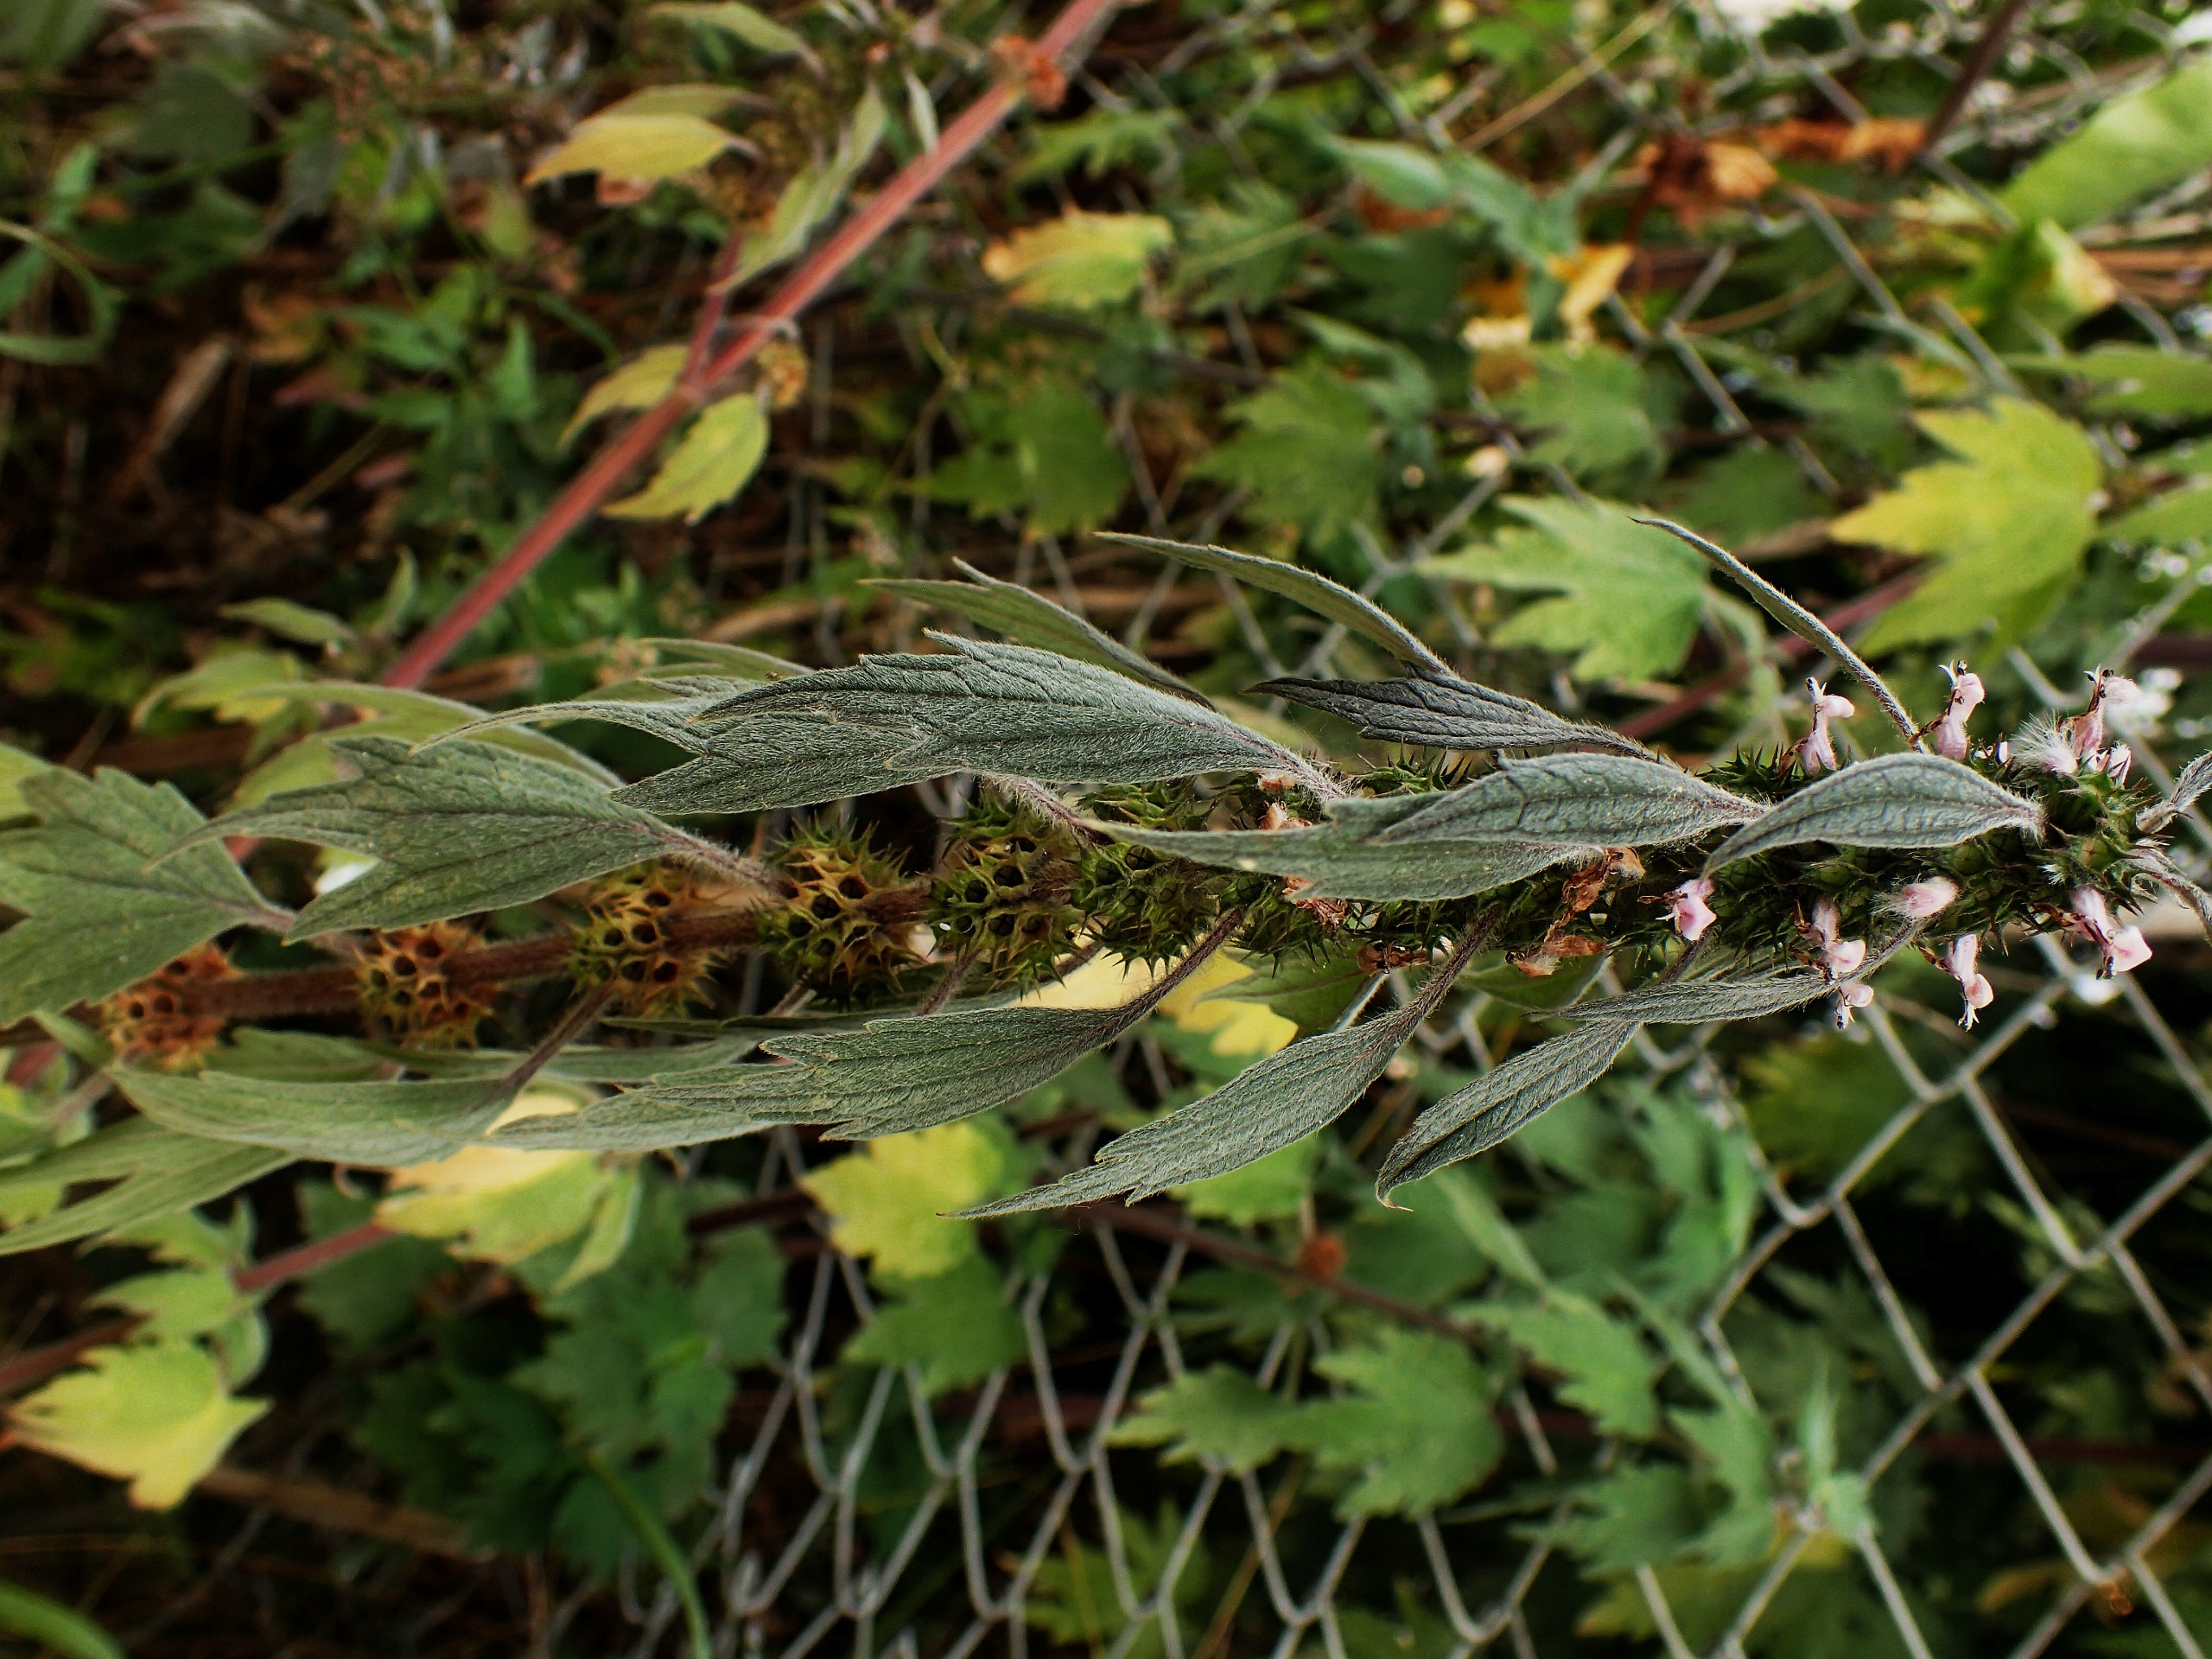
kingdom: Plantae
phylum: Tracheophyta
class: Magnoliopsida
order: Lamiales
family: Lamiaceae
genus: Leonurus
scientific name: Leonurus cardiaca
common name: Hjertespand
